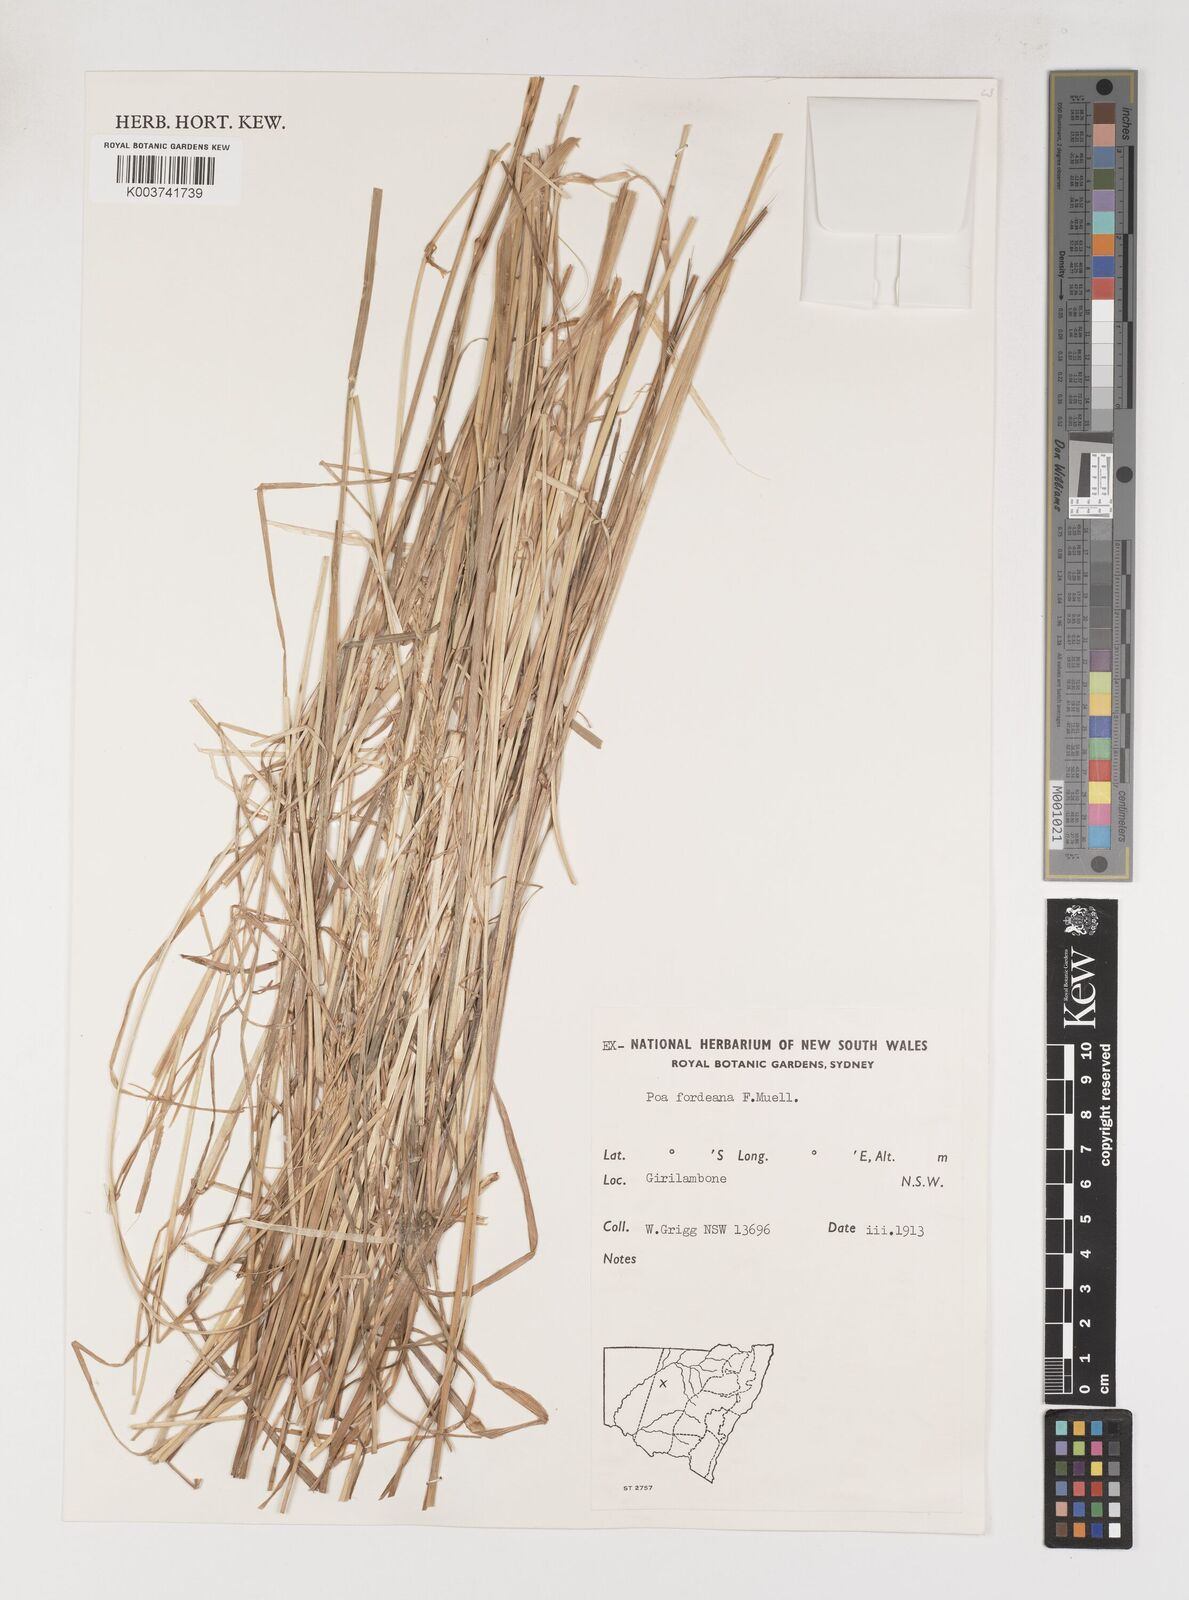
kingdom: Plantae
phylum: Tracheophyta
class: Liliopsida
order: Poales
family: Poaceae
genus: Poa
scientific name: Poa fordeana
